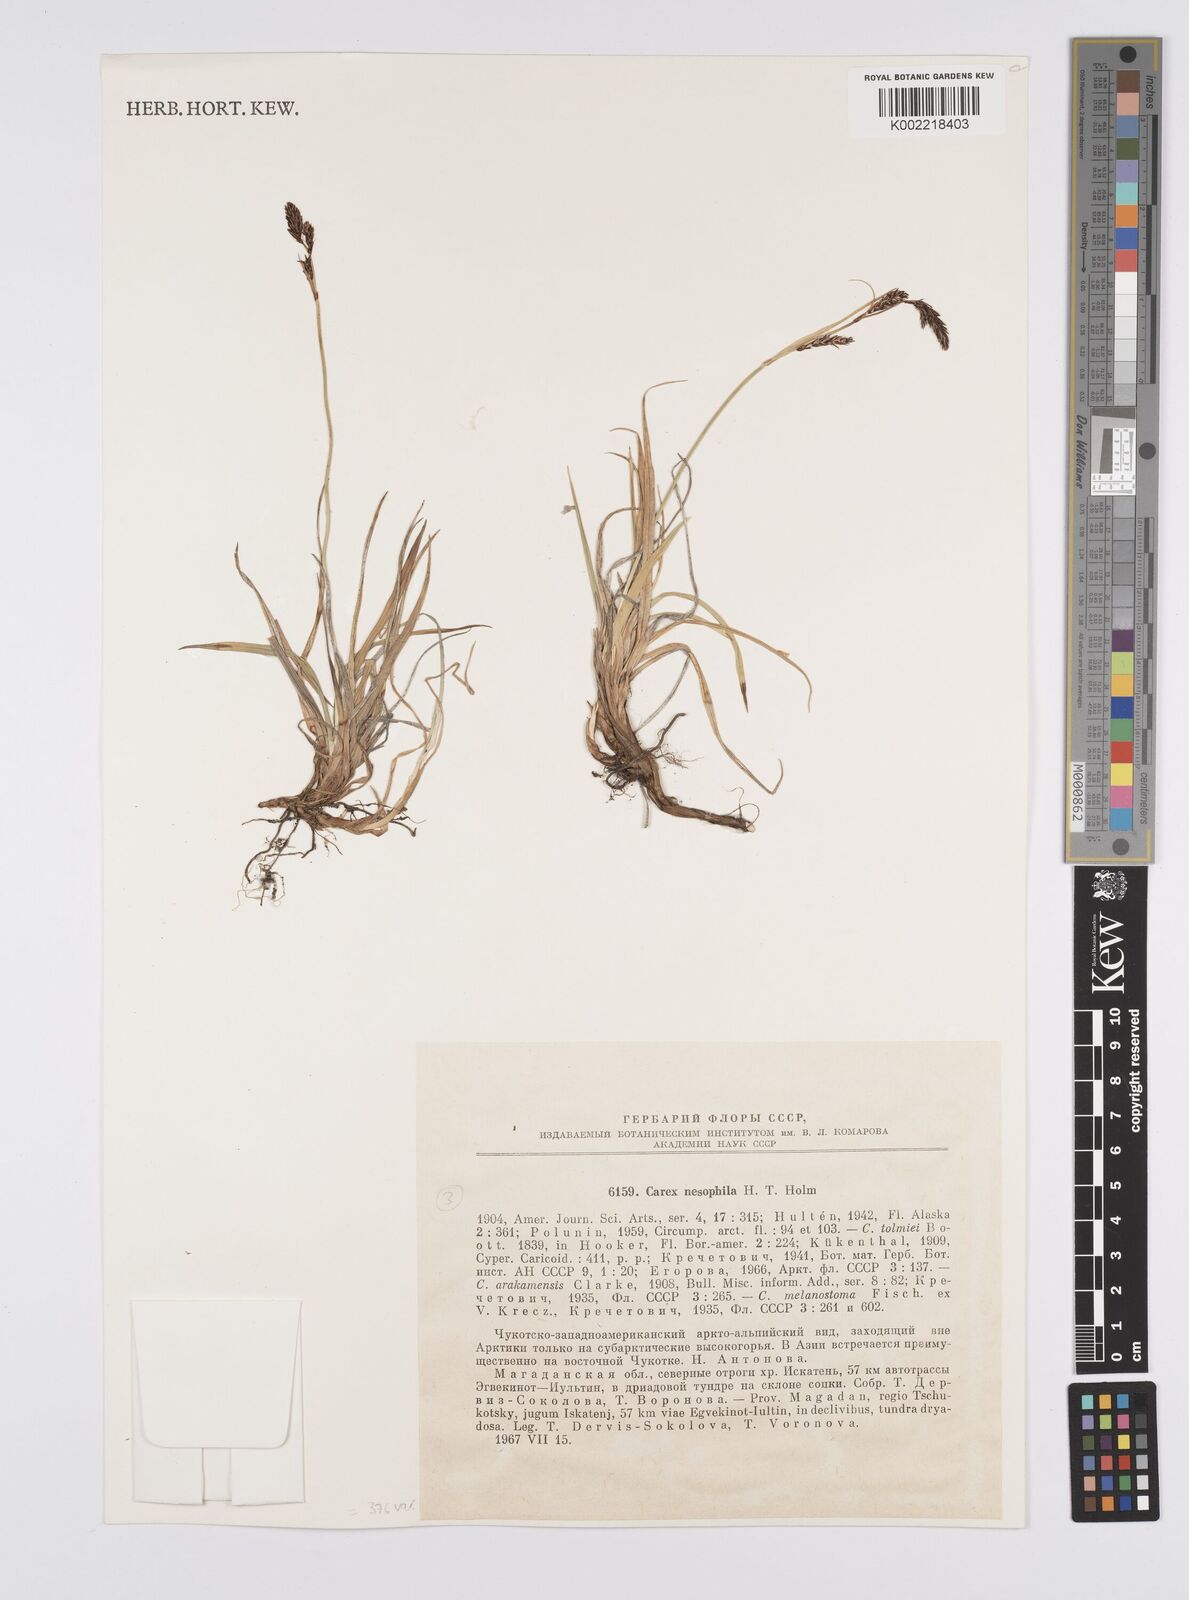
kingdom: Plantae
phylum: Tracheophyta
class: Liliopsida
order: Poales
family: Cyperaceae
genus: Carex
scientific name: Carex macrochaeta
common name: Alaska large awn sedge
